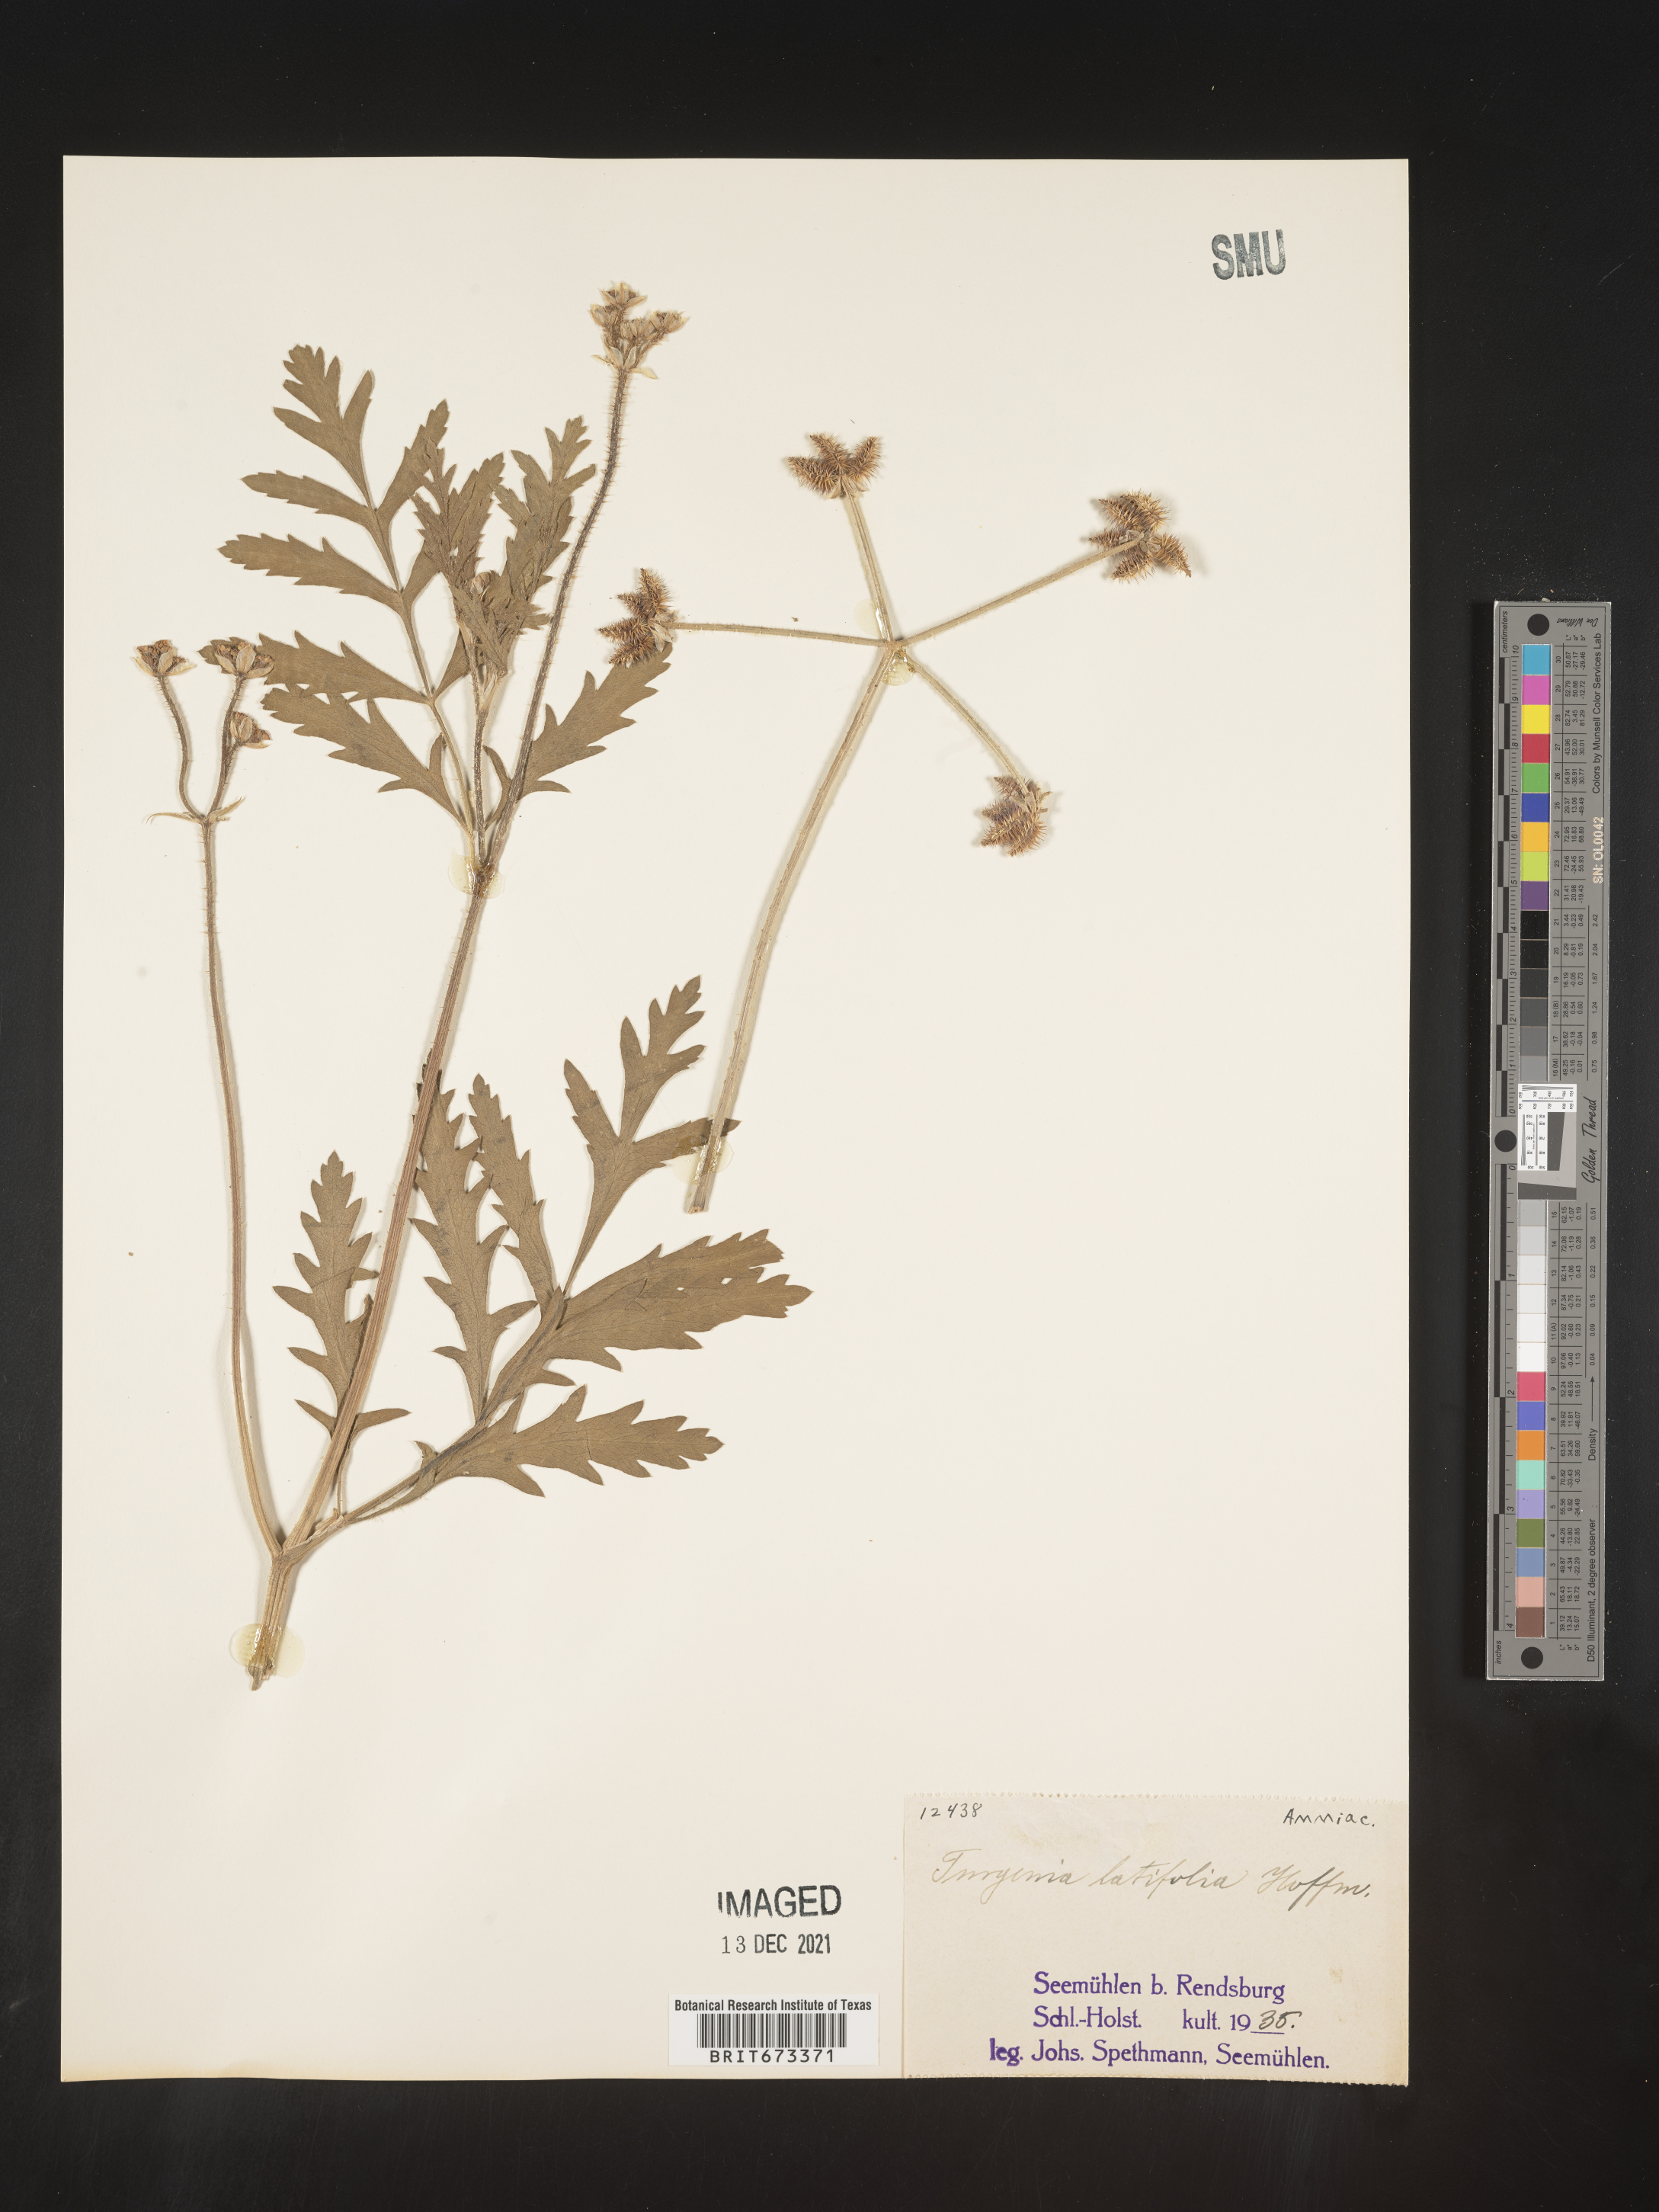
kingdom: Plantae
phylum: Tracheophyta
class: Magnoliopsida
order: Apiales
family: Apiaceae
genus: Turgenia
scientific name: Turgenia
